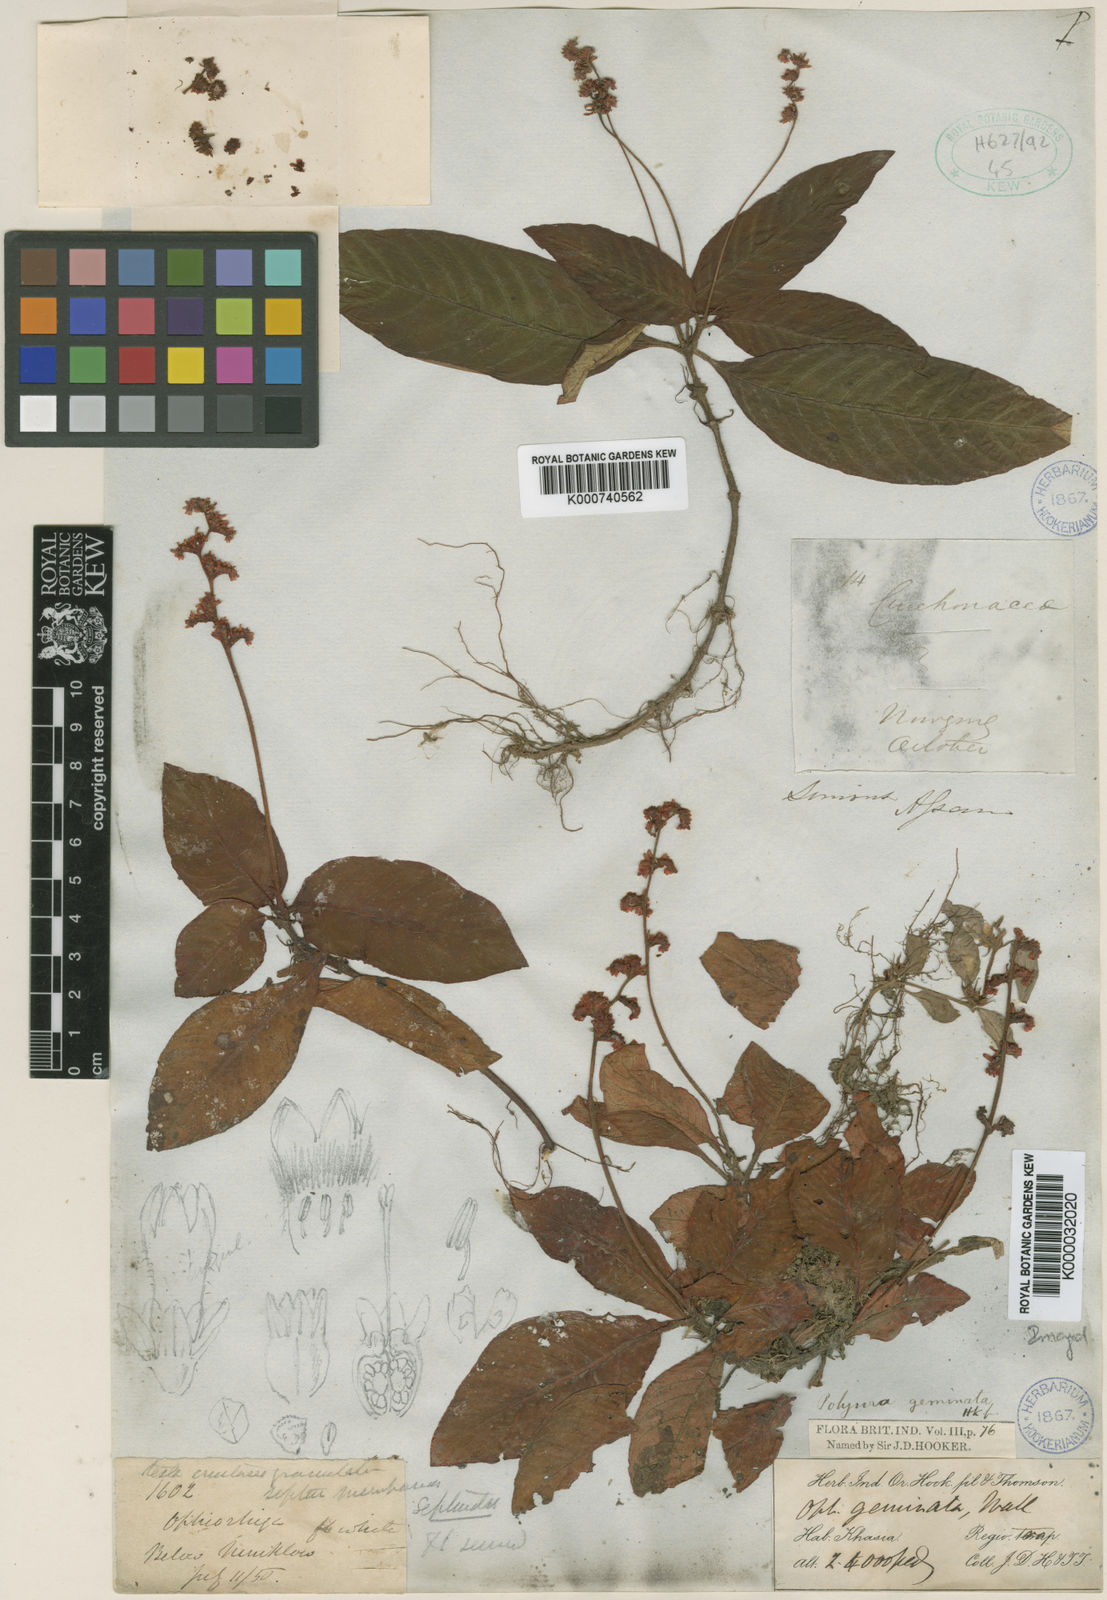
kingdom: Plantae
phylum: Tracheophyta
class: Magnoliopsida
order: Gentianales
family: Rubiaceae
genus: Polyura
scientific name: Polyura geminata
